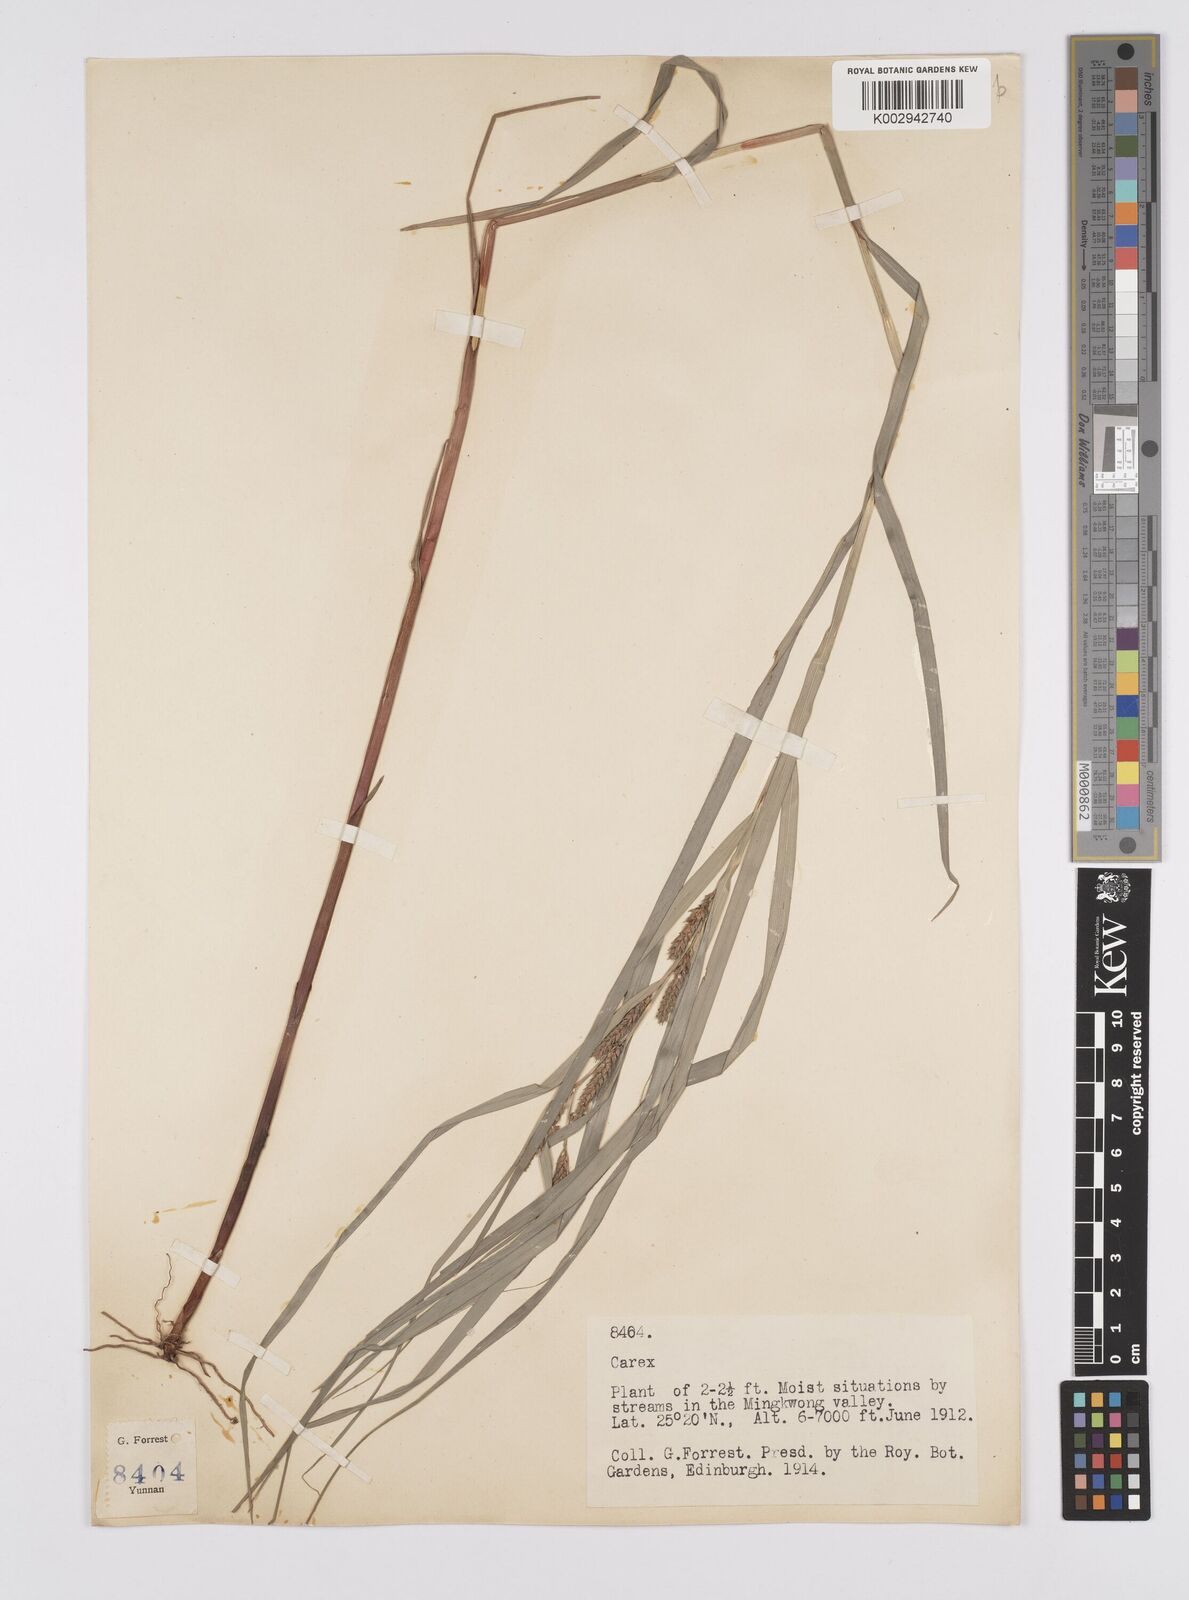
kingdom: Plantae
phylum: Tracheophyta
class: Liliopsida
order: Poales
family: Cyperaceae
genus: Carex
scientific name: Carex ligulata
